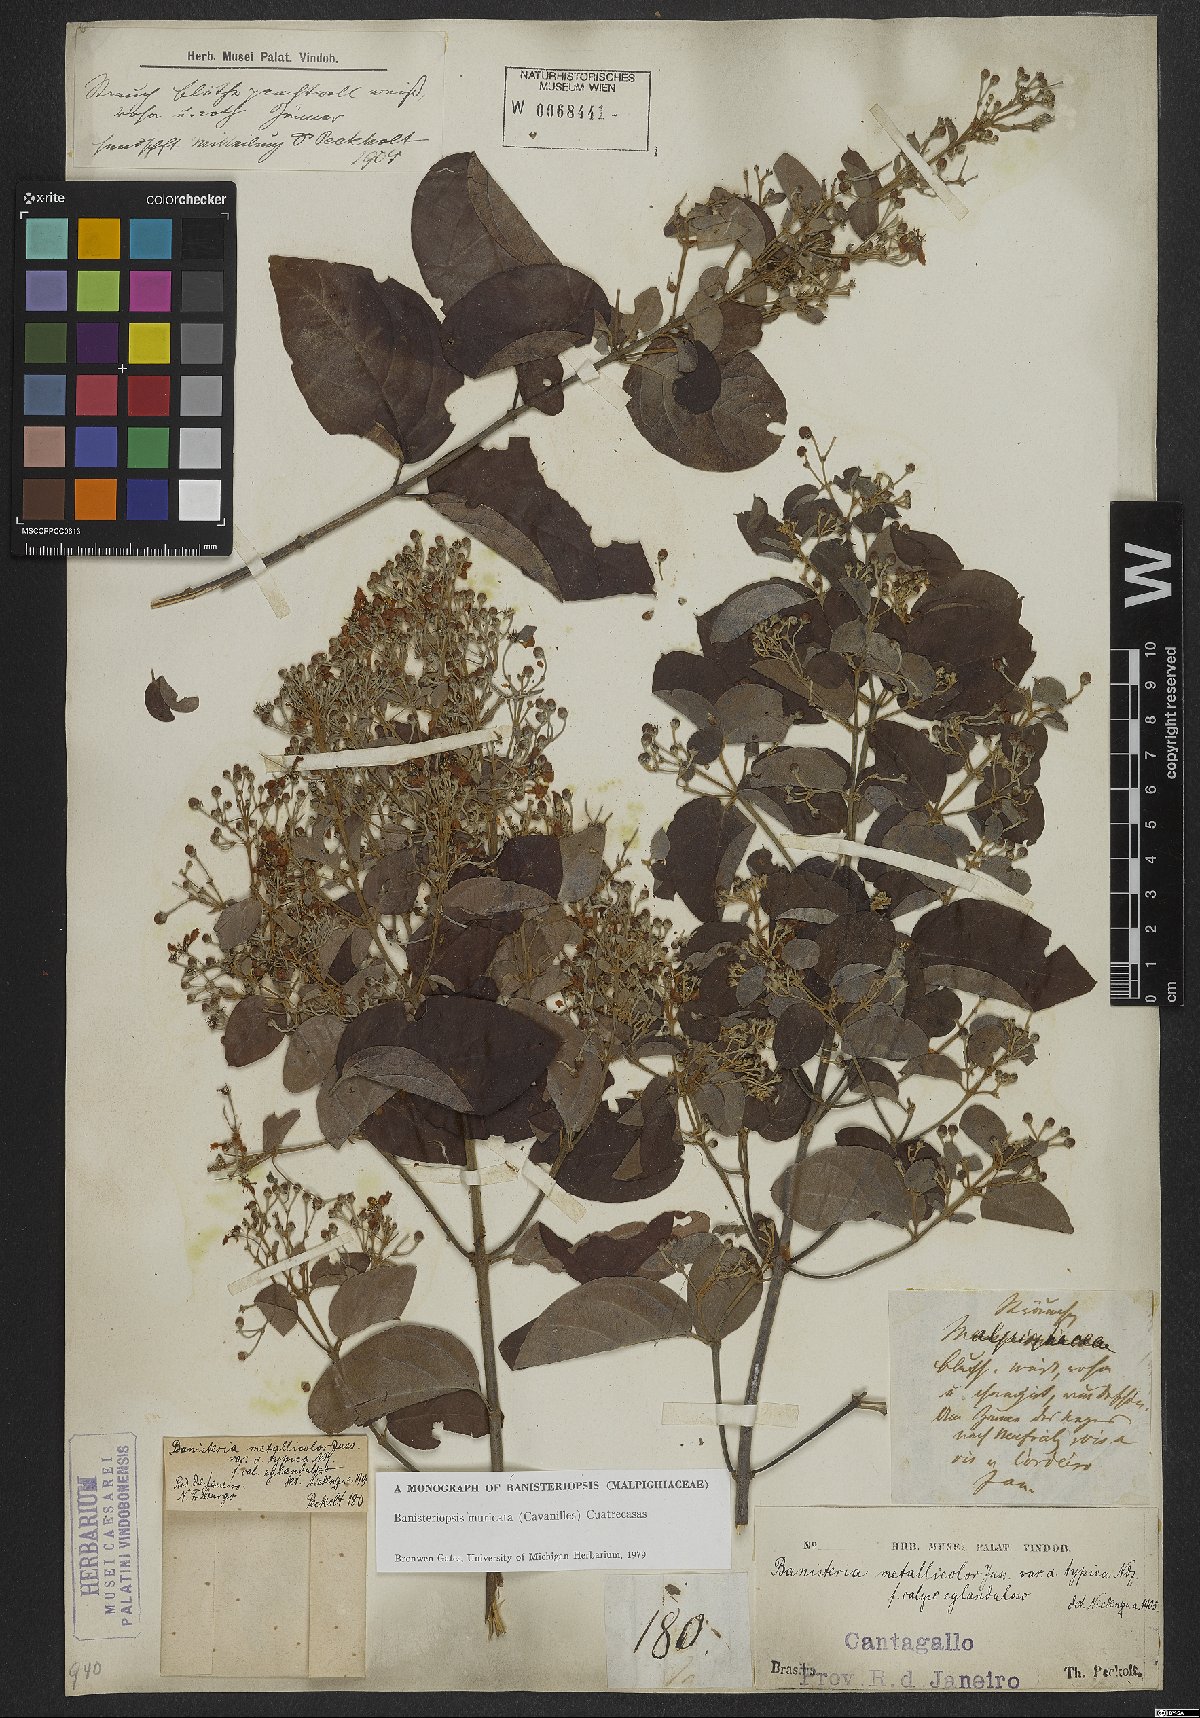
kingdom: Plantae
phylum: Tracheophyta
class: Magnoliopsida
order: Malpighiales
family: Malpighiaceae
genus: Banisteriopsis
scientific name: Banisteriopsis muricata
